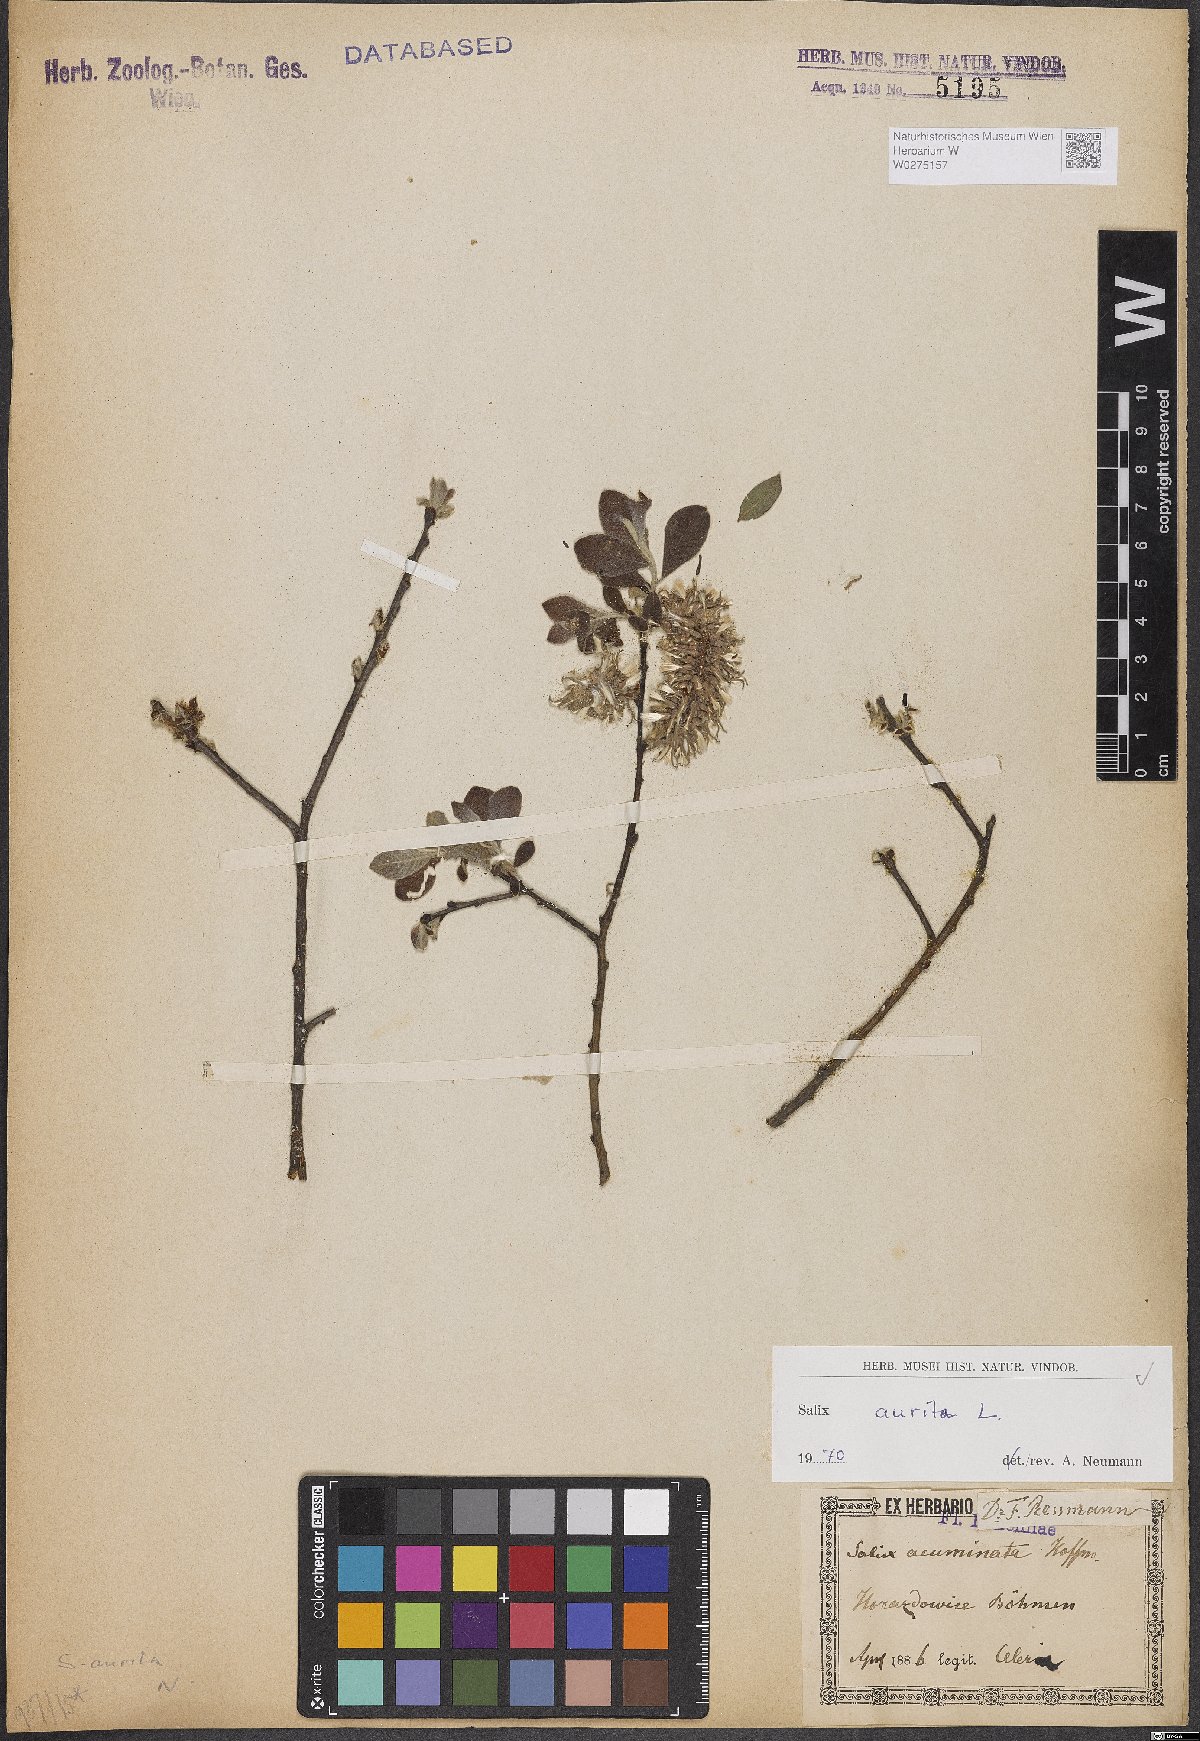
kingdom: Plantae
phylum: Tracheophyta
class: Magnoliopsida
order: Malpighiales
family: Salicaceae
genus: Salix
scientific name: Salix aurita
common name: Eared willow
